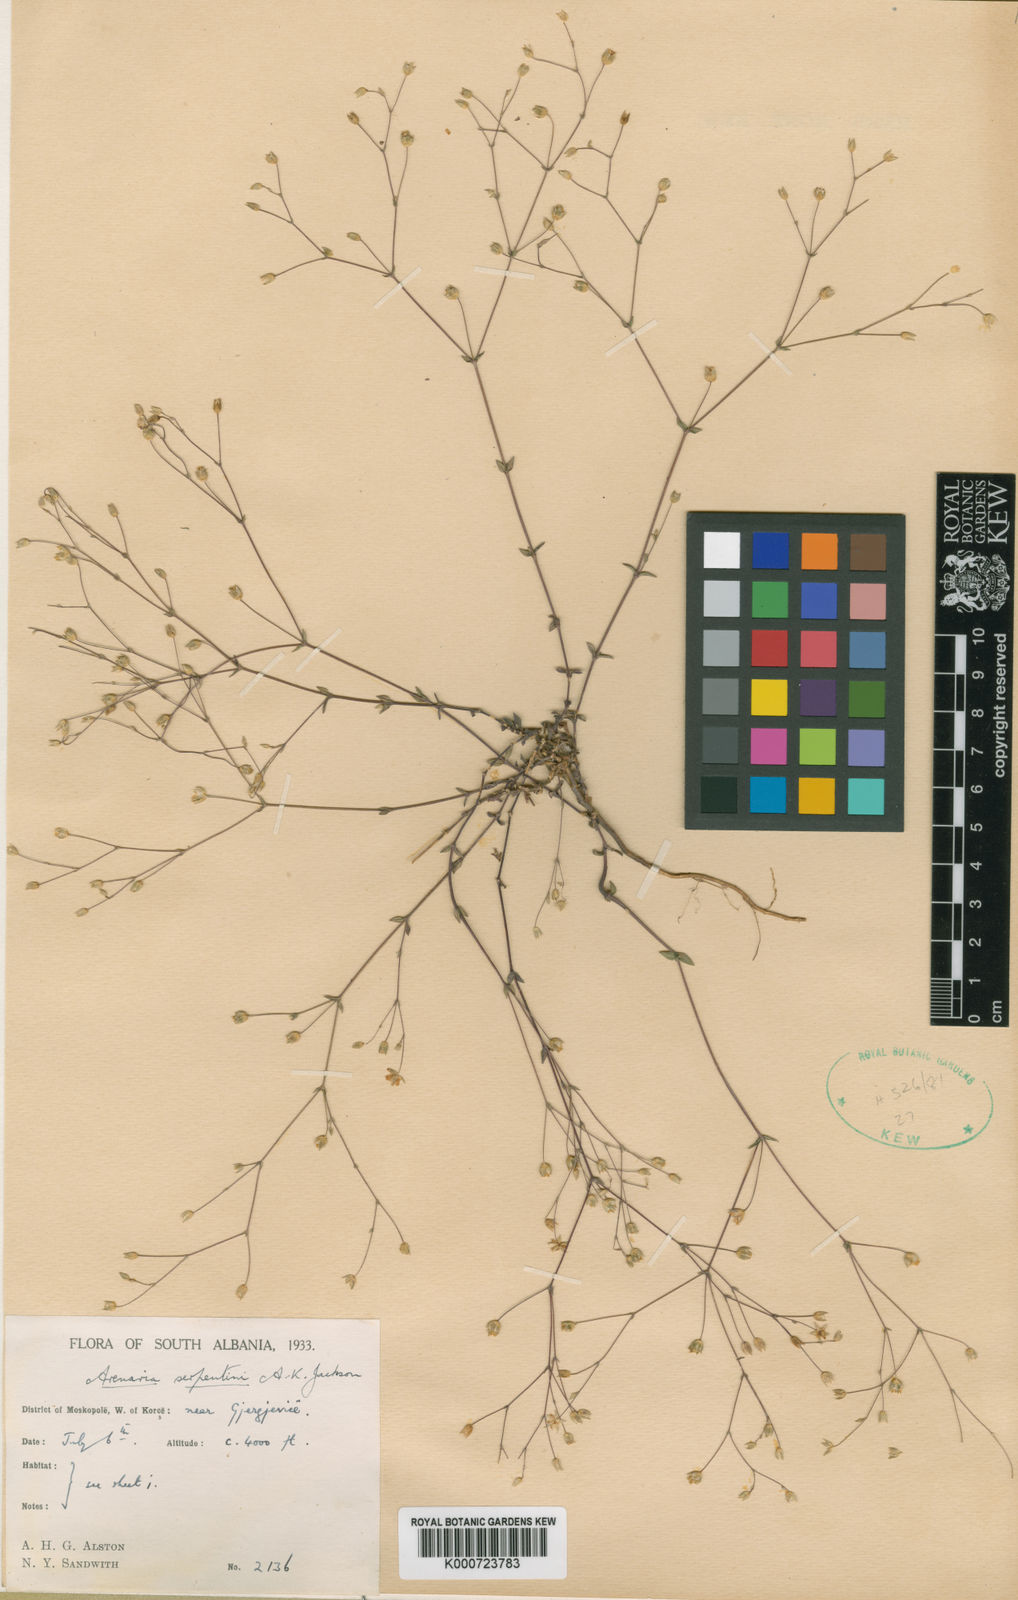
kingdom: Plantae
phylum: Tracheophyta
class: Magnoliopsida
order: Caryophyllales
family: Caryophyllaceae
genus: Arenaria
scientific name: Arenaria conferta
